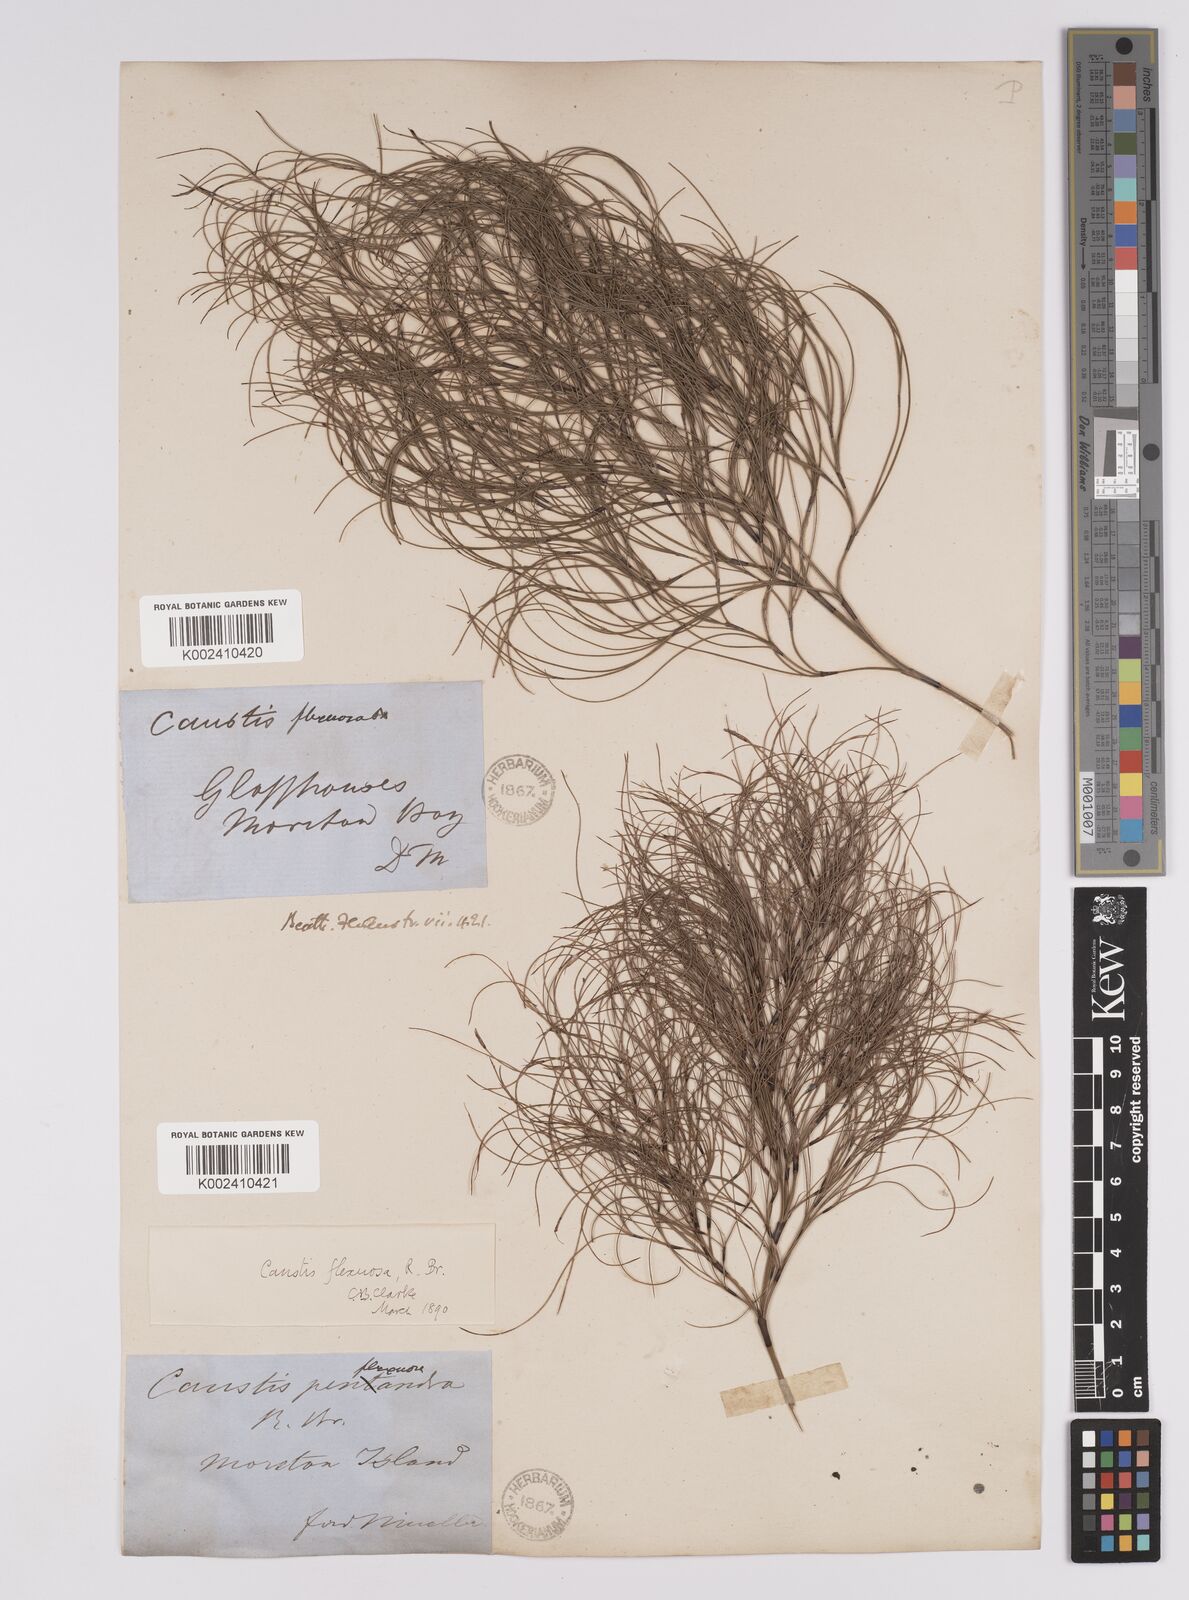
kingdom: Plantae
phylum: Tracheophyta
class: Liliopsida
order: Poales
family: Cyperaceae
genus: Caustis
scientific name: Caustis flexuosa
